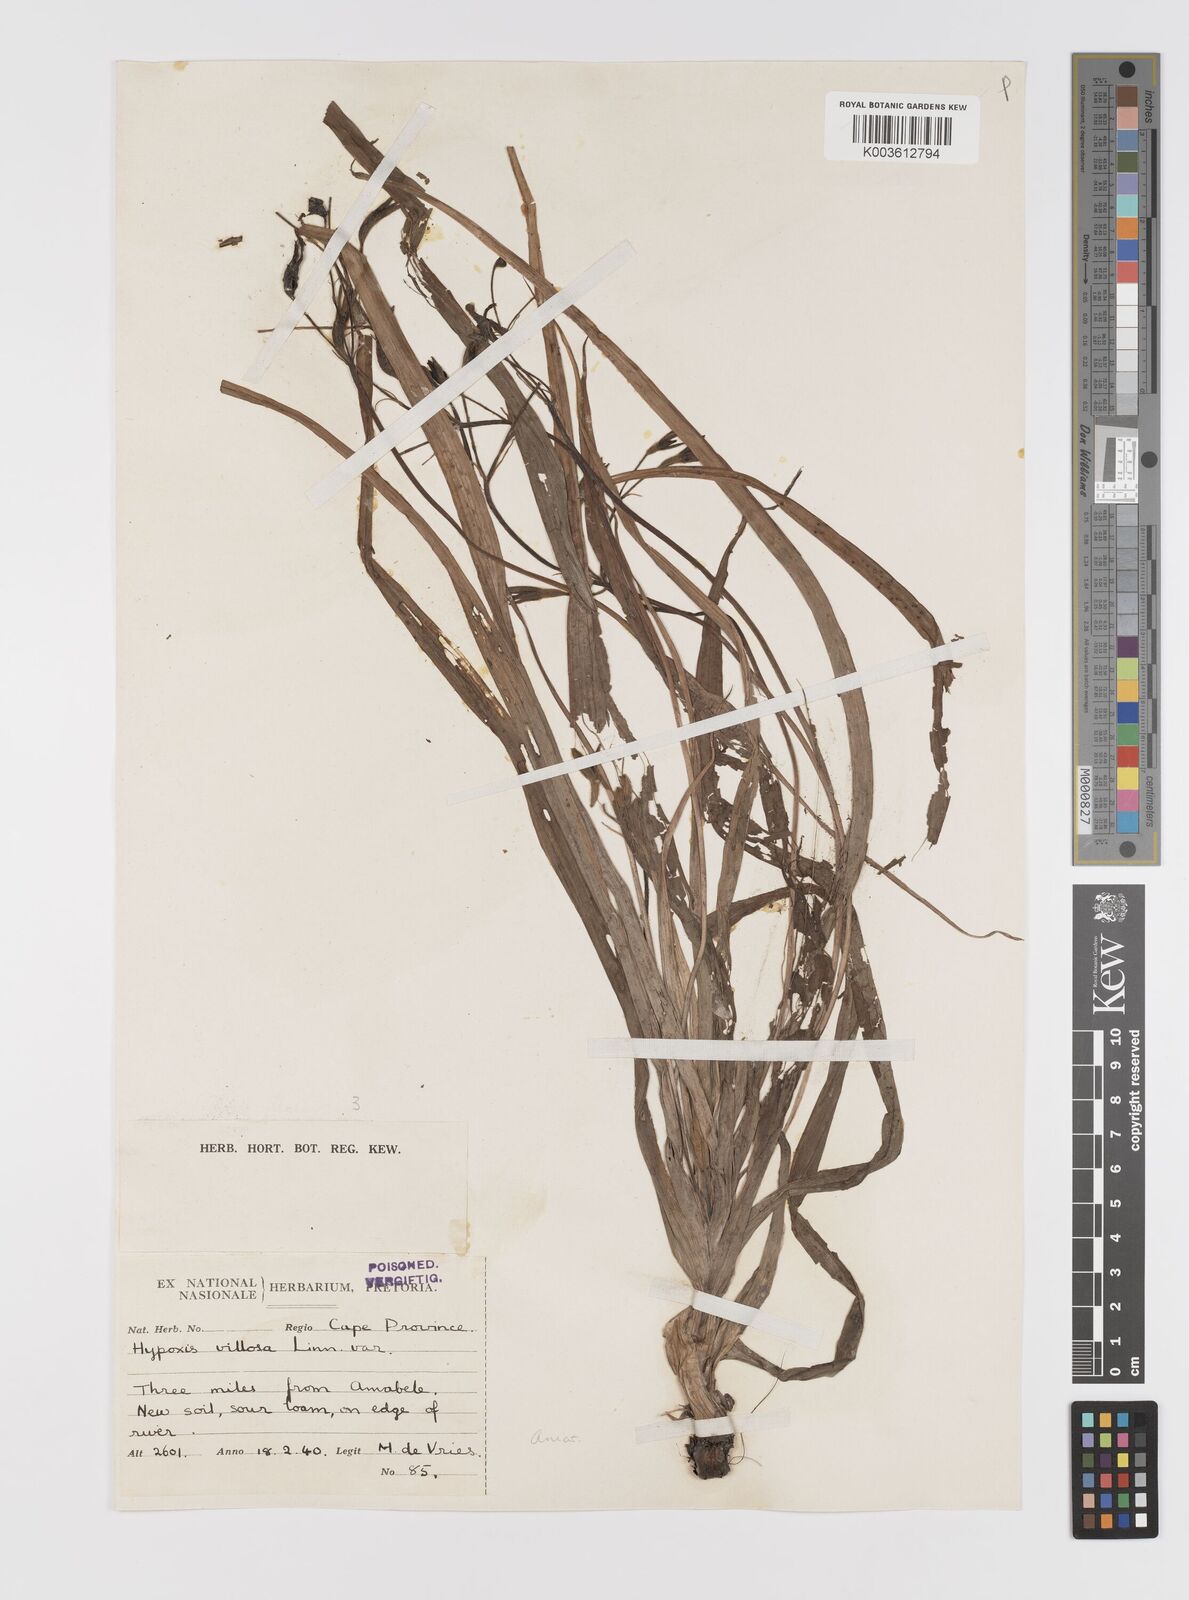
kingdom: Plantae
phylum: Tracheophyta
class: Liliopsida
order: Asparagales
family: Hypoxidaceae
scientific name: Hypoxidaceae
